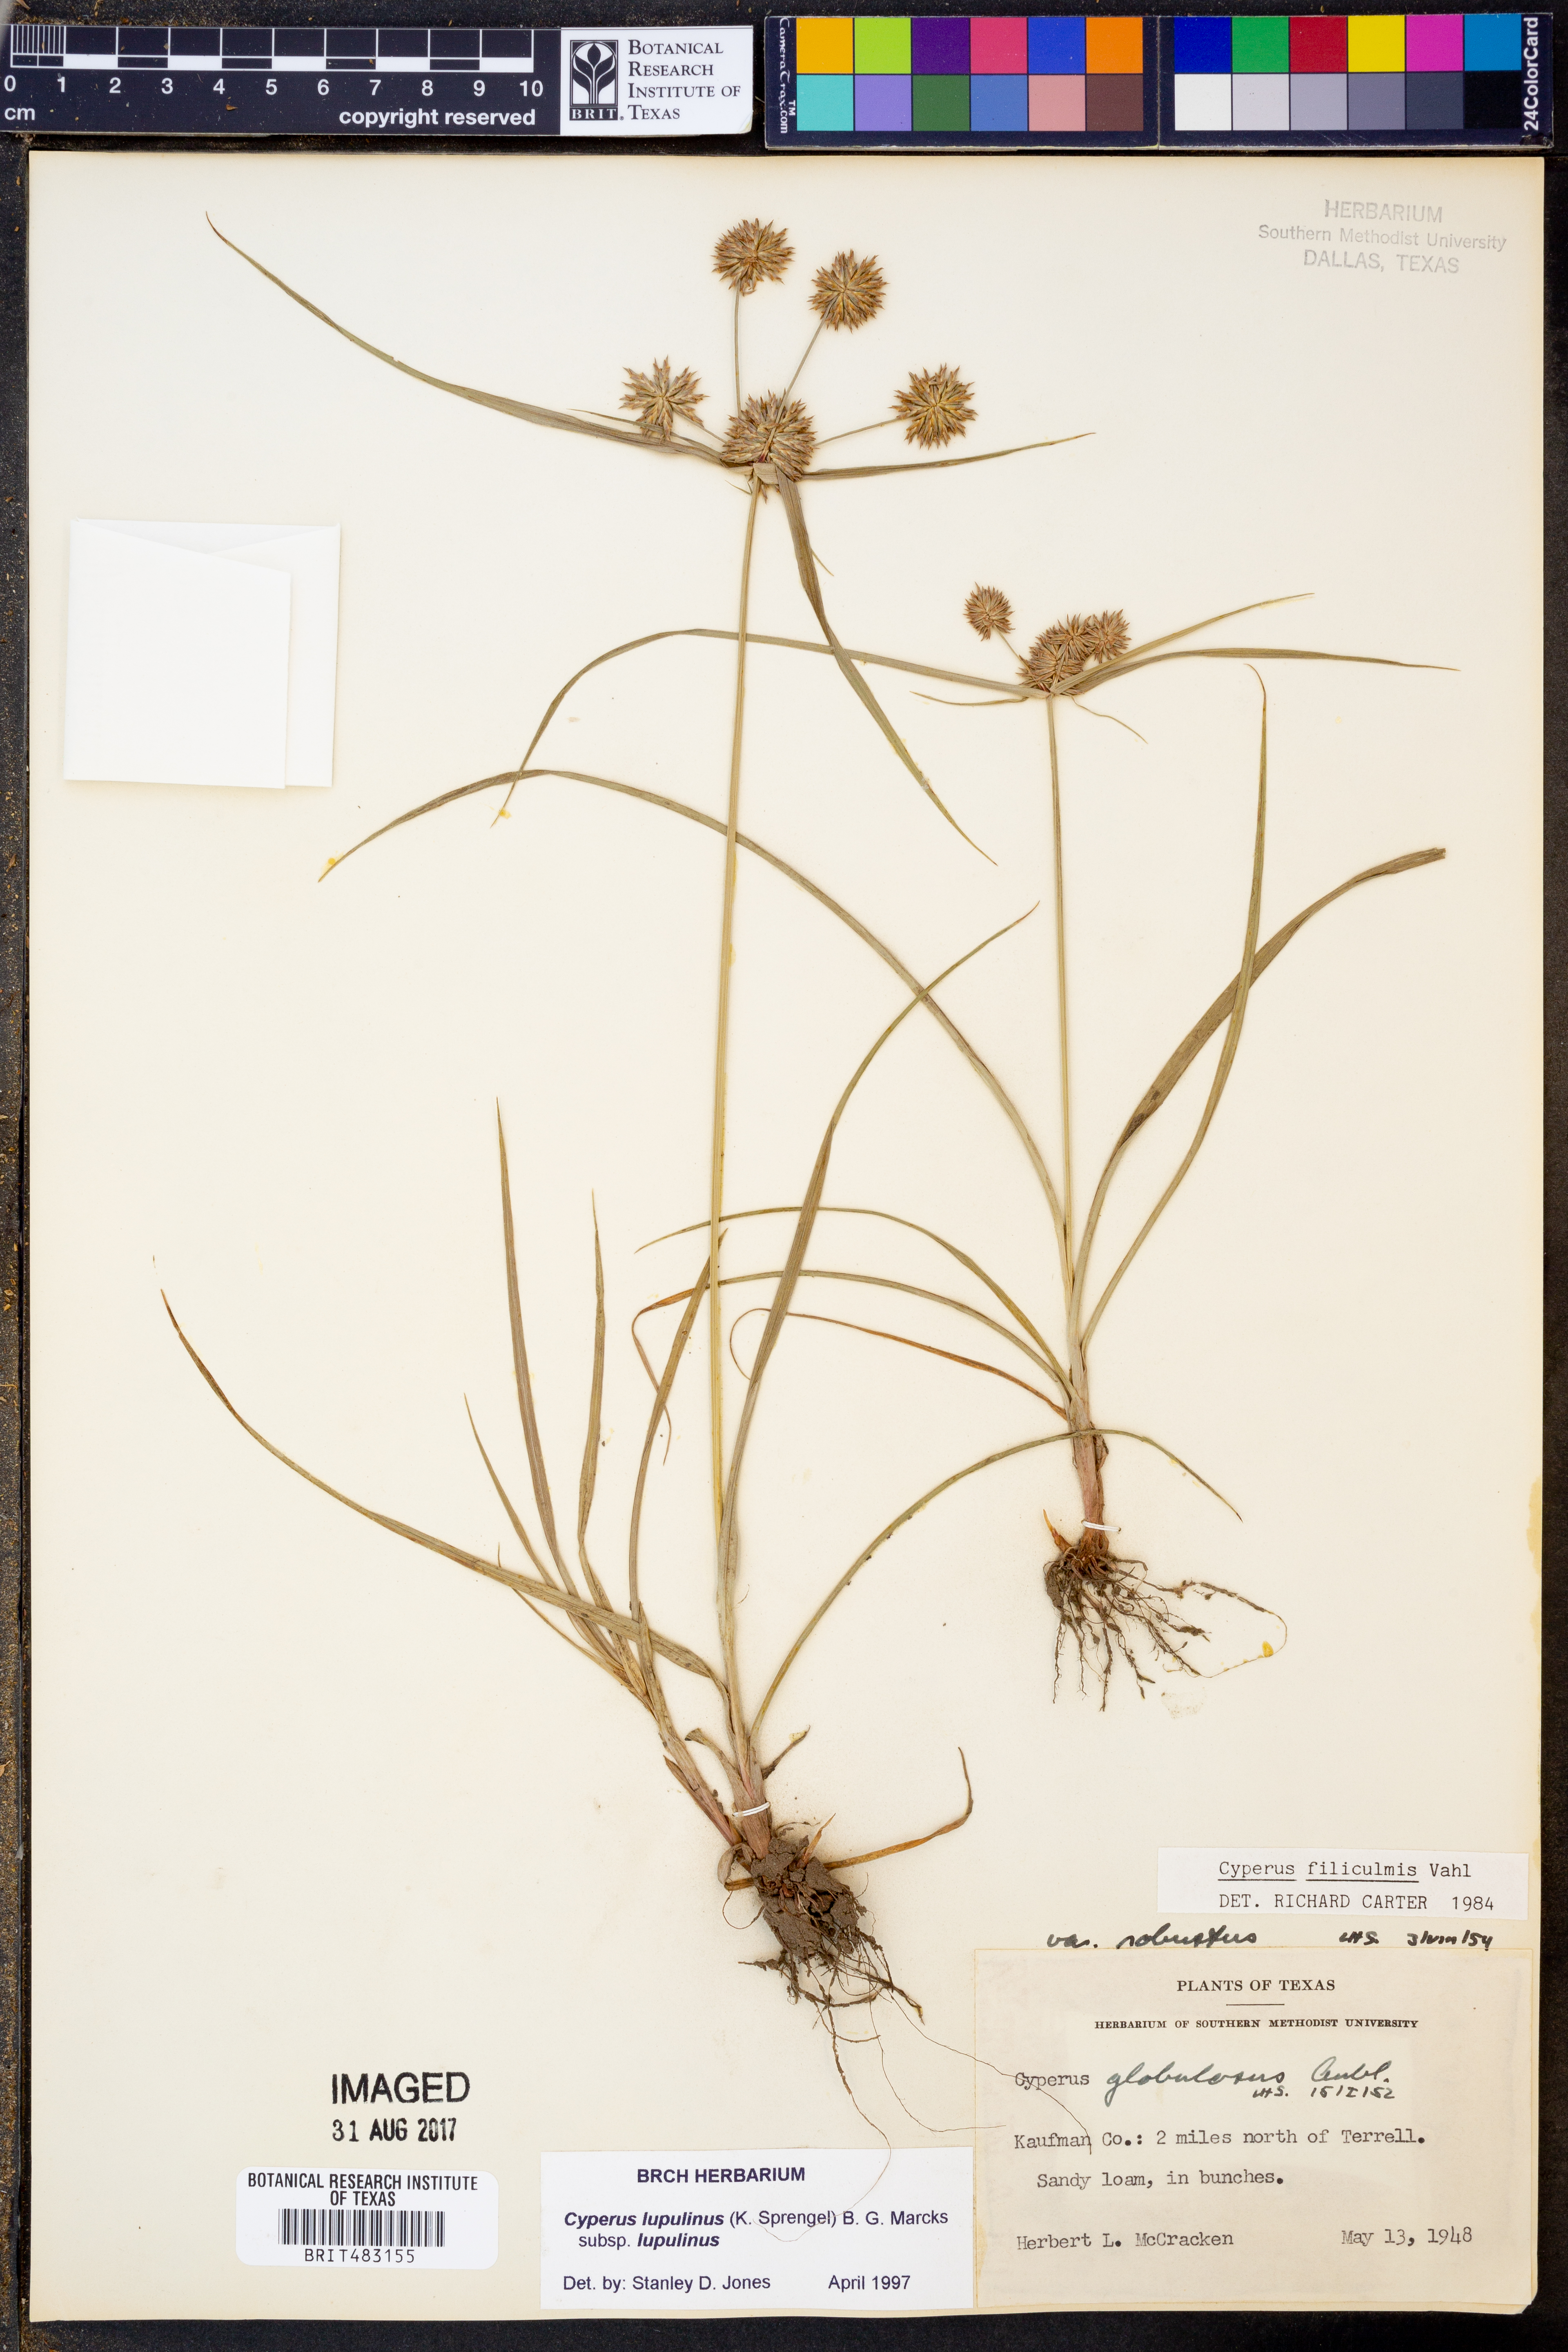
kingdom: Plantae
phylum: Tracheophyta
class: Liliopsida
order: Poales
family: Cyperaceae
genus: Cyperus
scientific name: Cyperus lupulinus
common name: Great plains flatsedge
